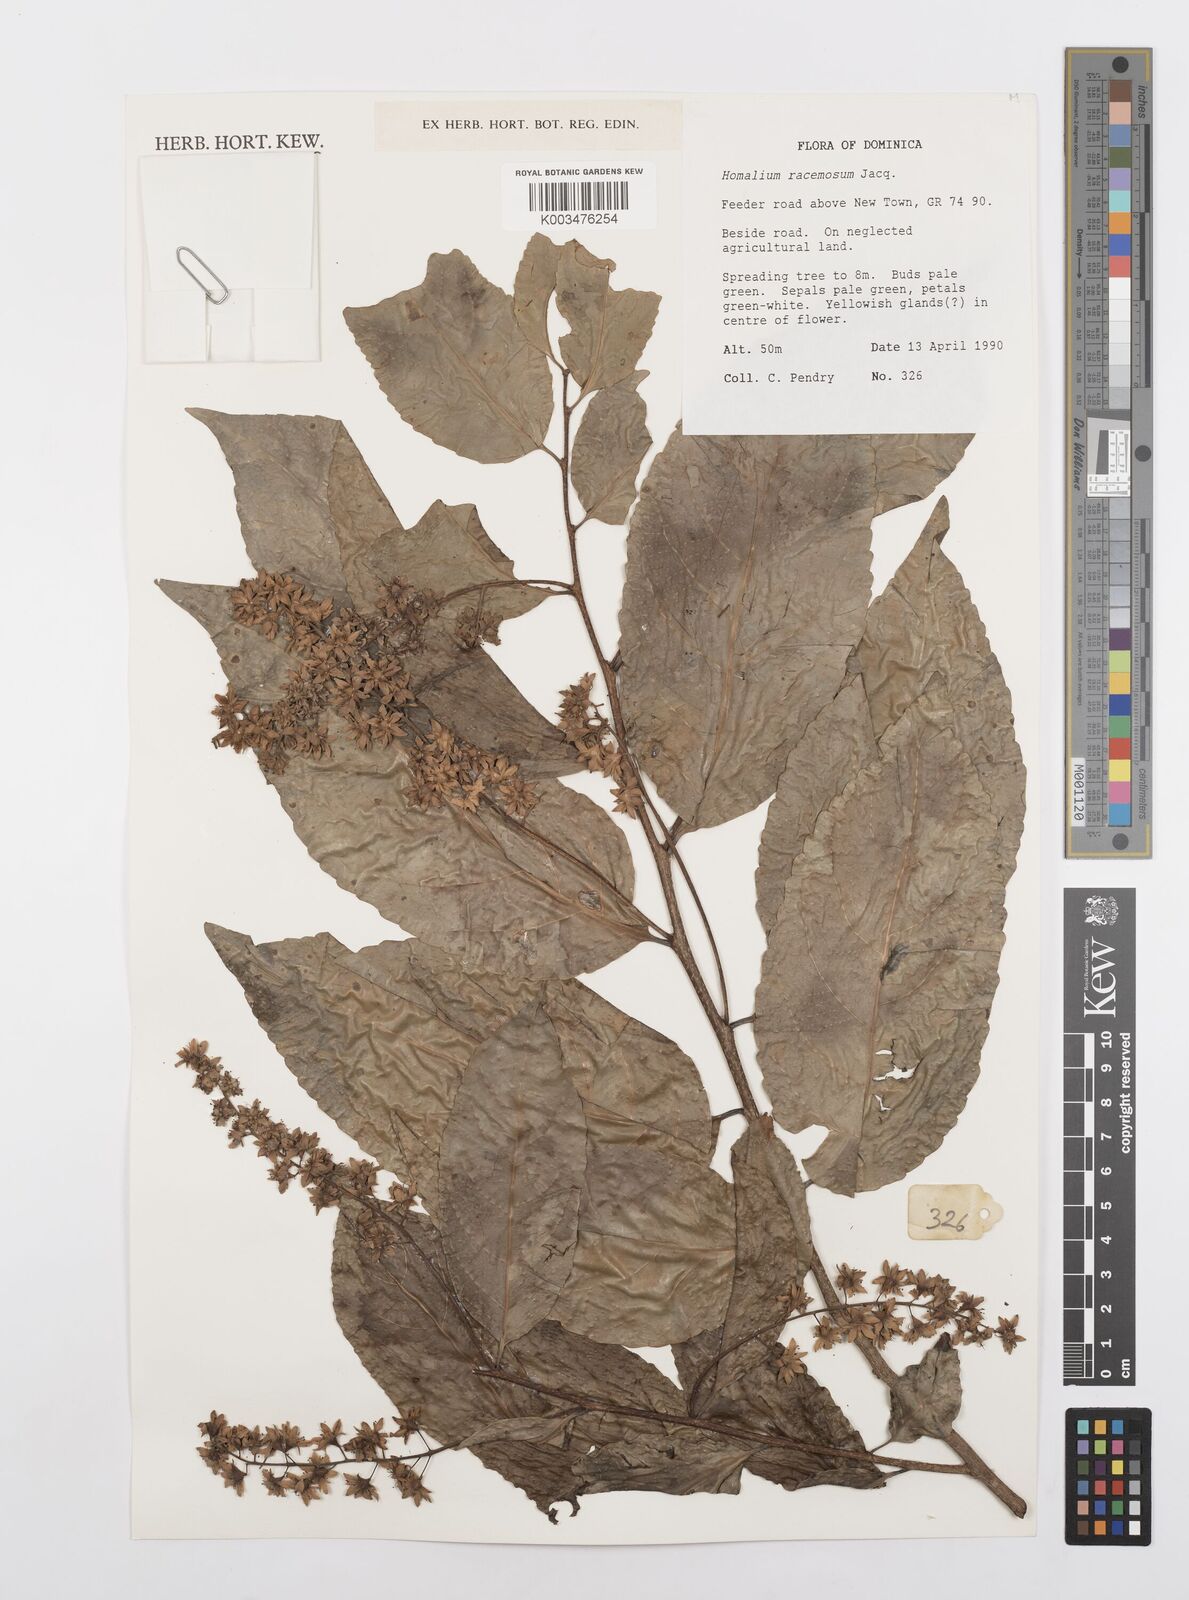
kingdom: Plantae
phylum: Tracheophyta
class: Magnoliopsida
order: Malpighiales
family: Salicaceae
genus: Homalium
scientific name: Homalium racemosum
